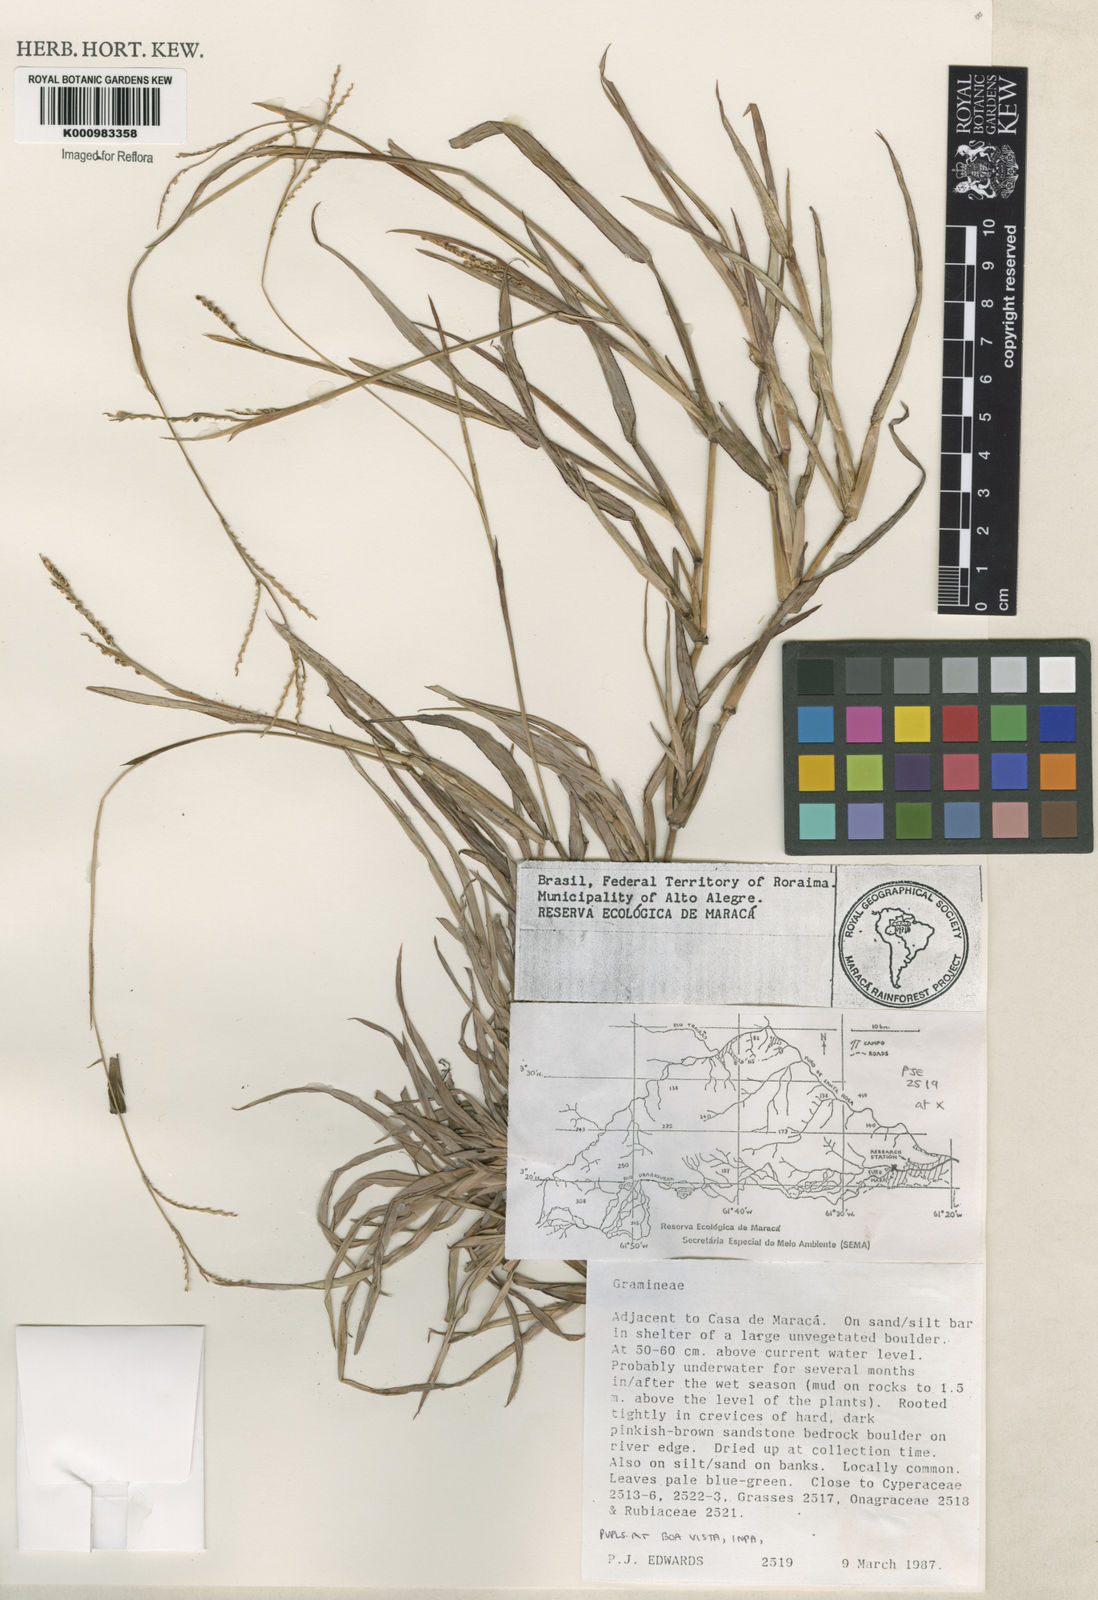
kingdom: Plantae
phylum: Tracheophyta
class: Liliopsida
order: Poales
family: Poaceae
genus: Paspalum
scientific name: Paspalum plicatulum
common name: Top paspalum
